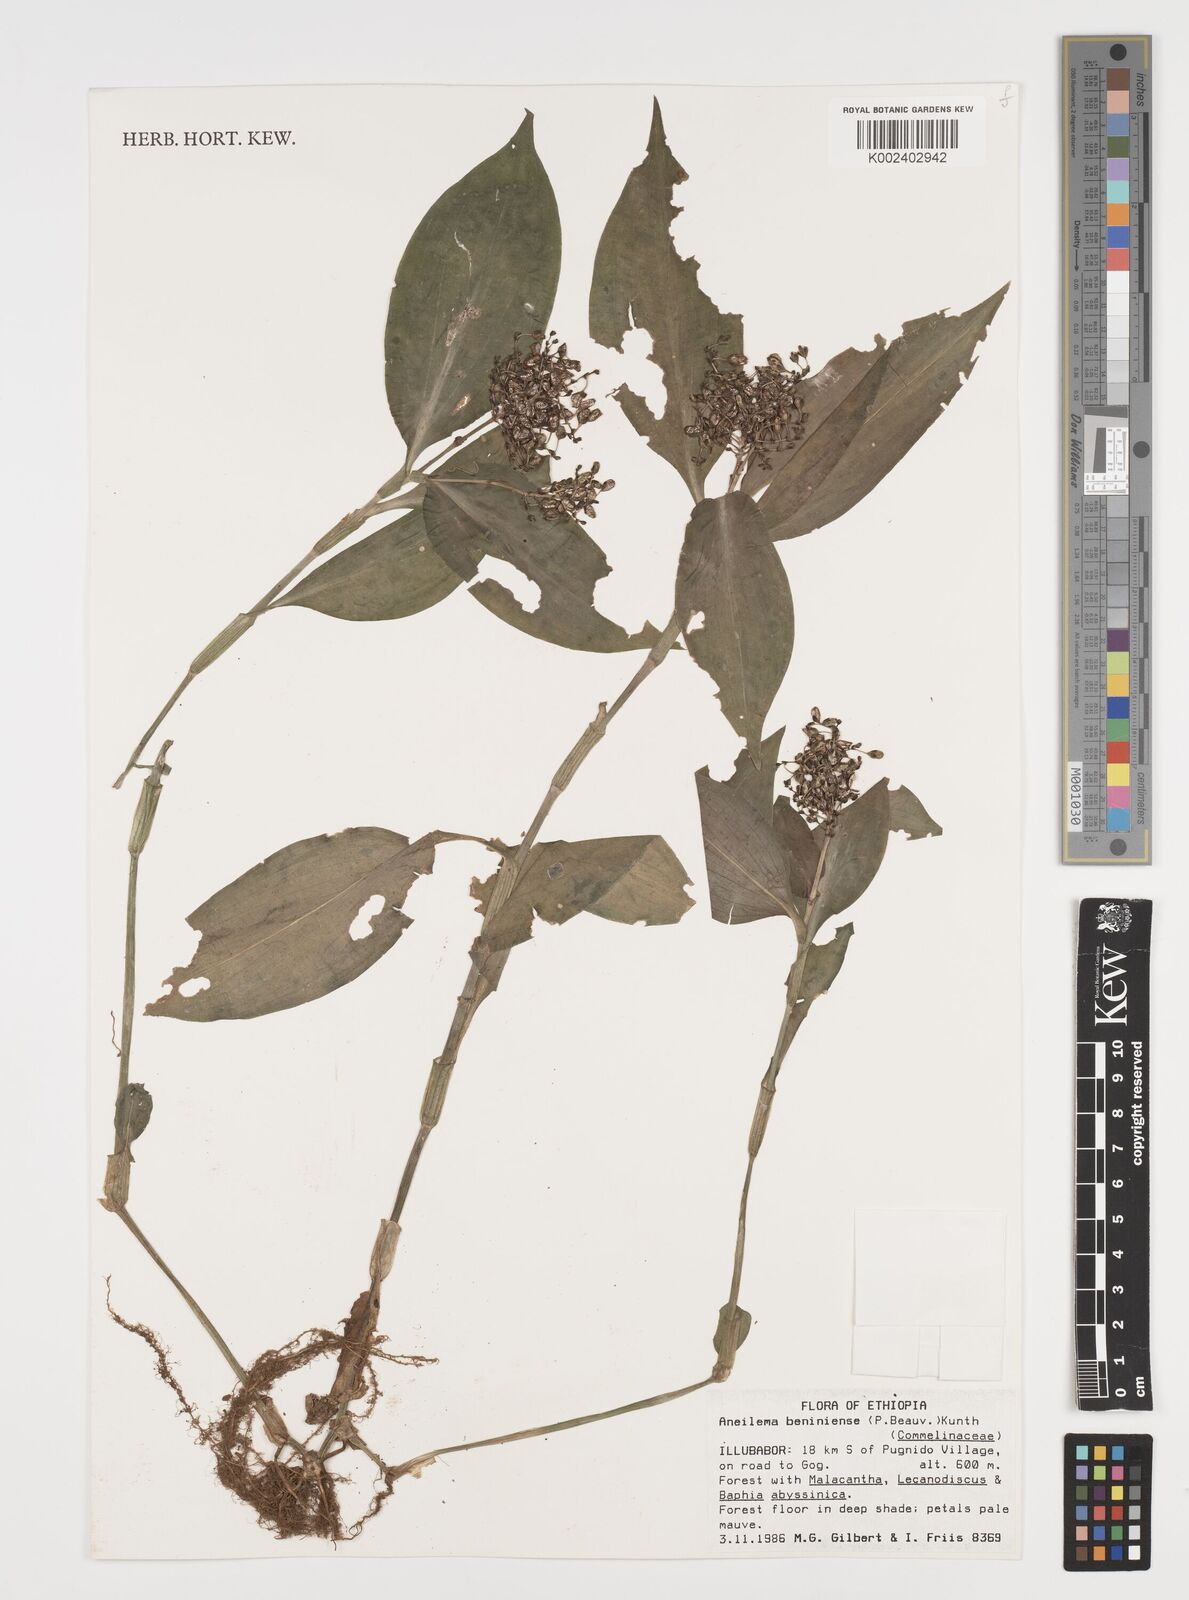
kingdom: Plantae
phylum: Tracheophyta
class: Liliopsida
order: Commelinales
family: Commelinaceae
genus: Aneilema
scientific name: Aneilema beniniense
